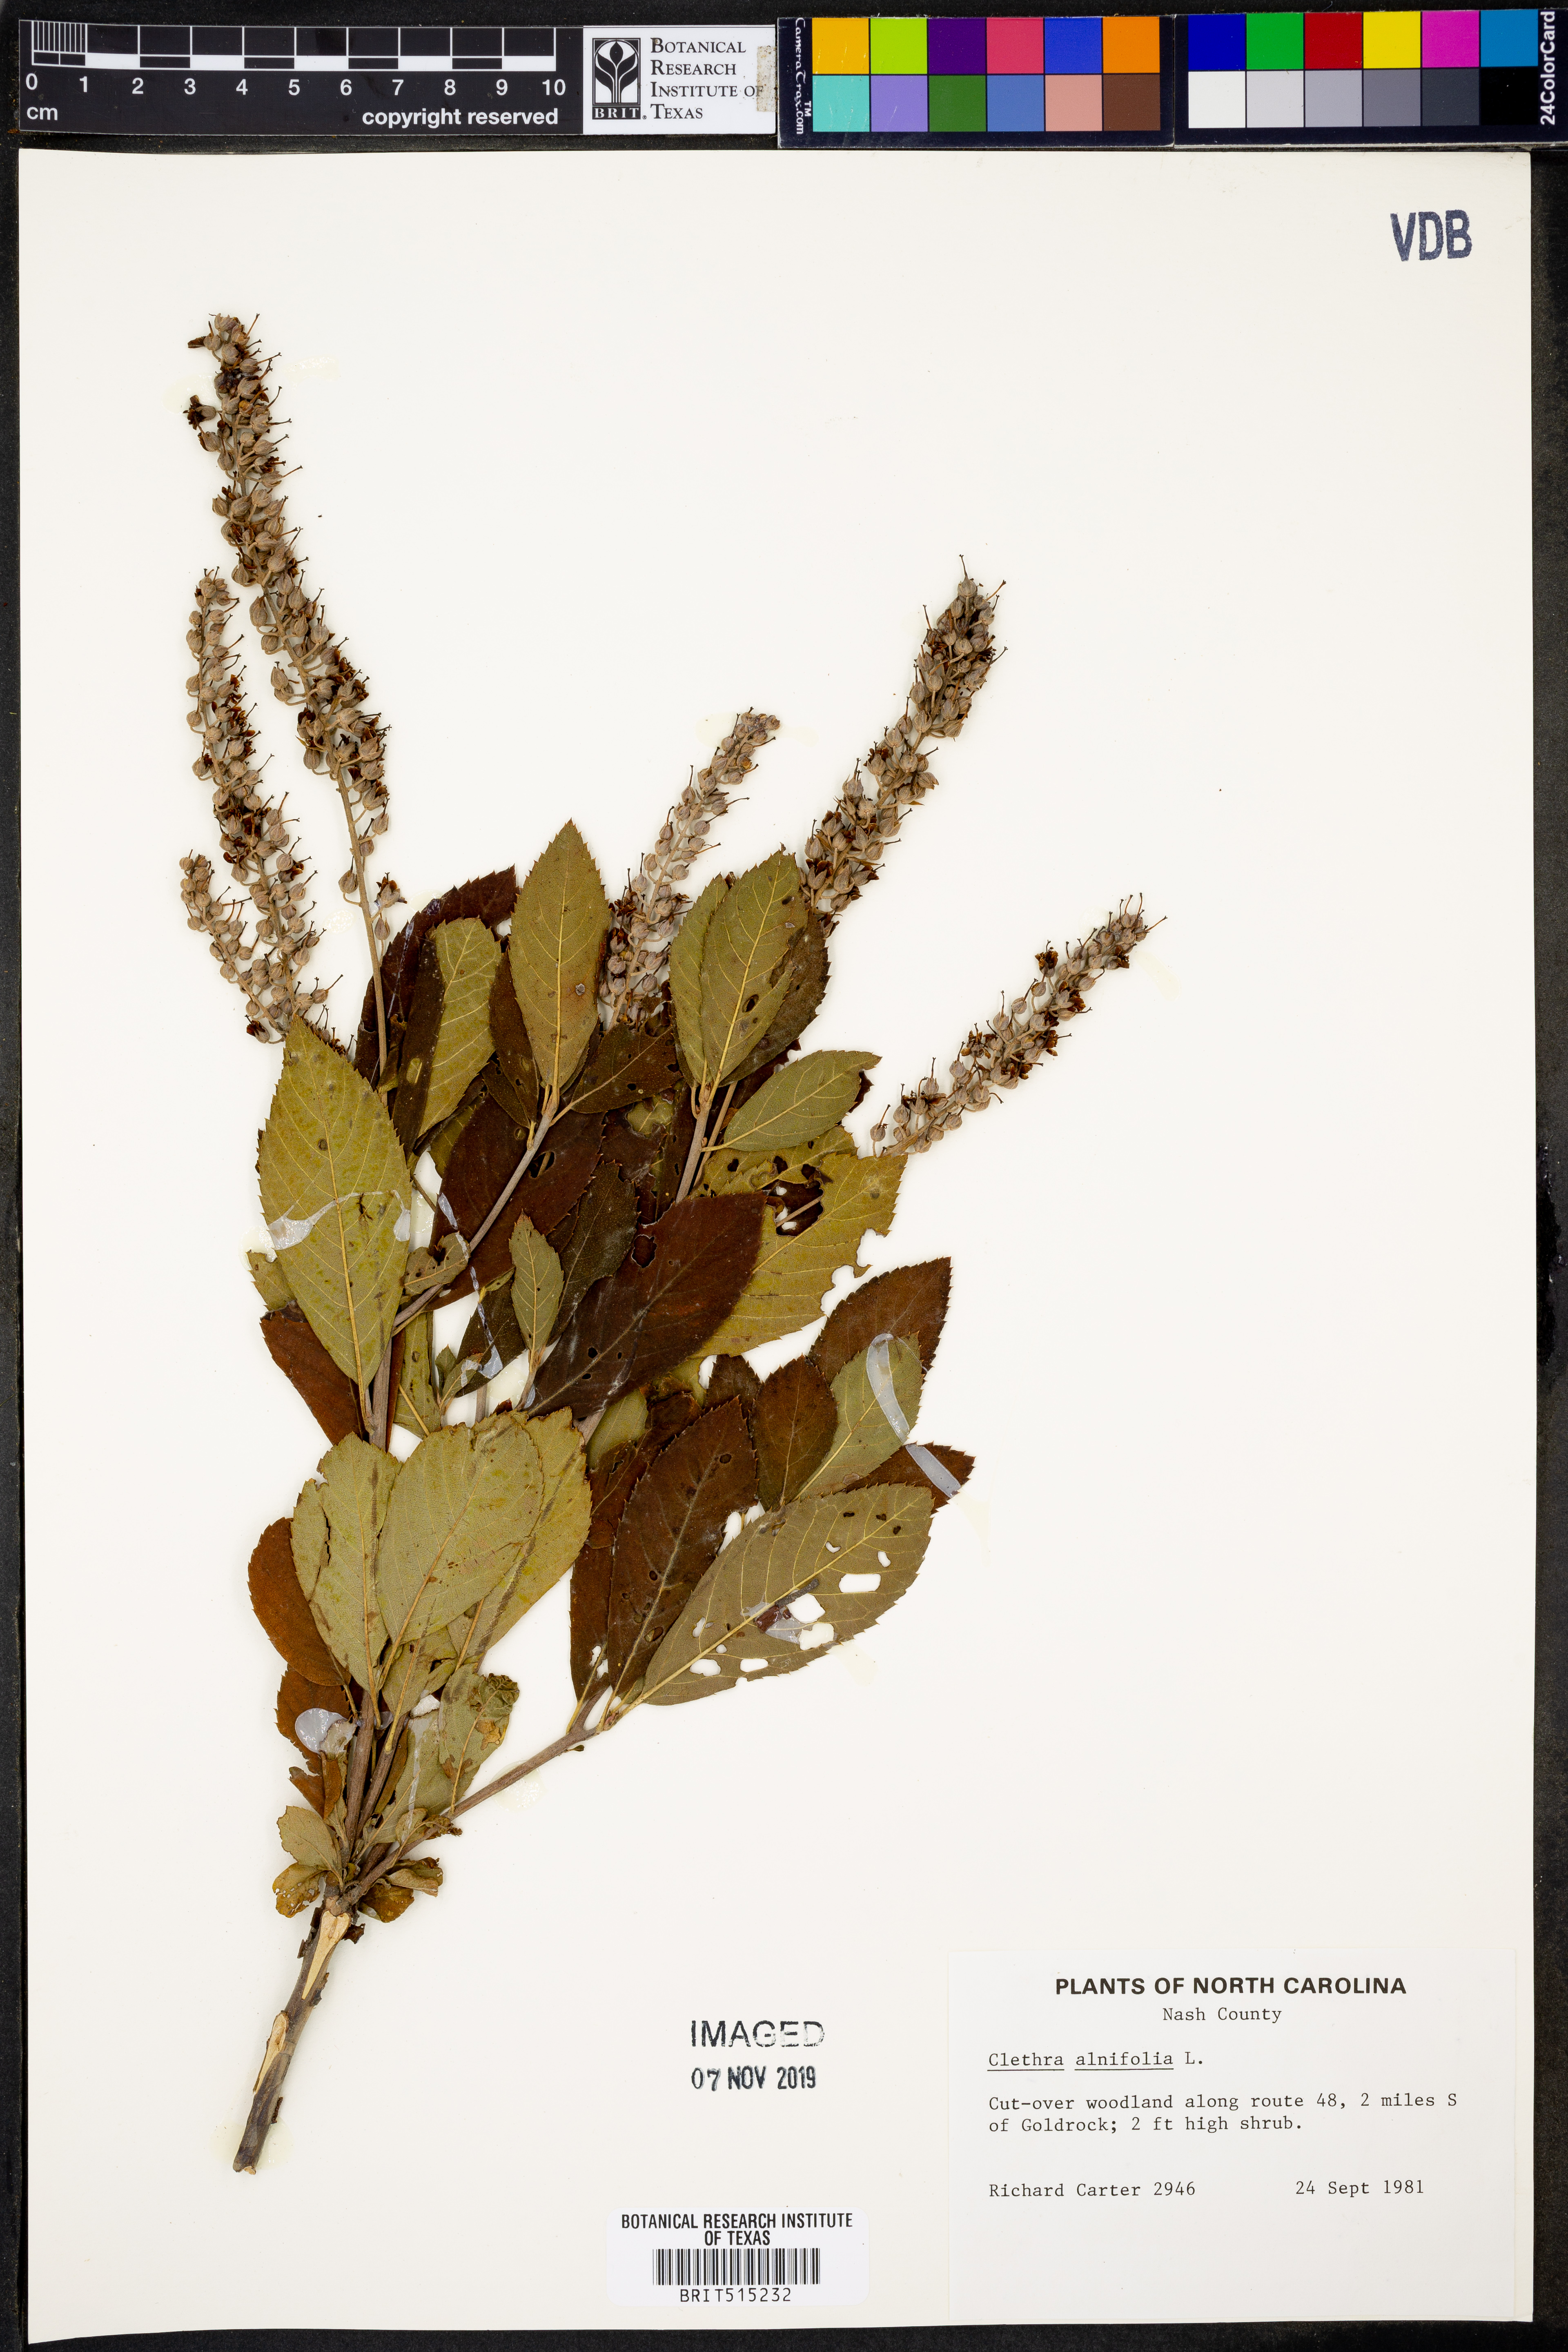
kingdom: Plantae
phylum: Tracheophyta
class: Magnoliopsida
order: Ericales
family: Clethraceae
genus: Clethra
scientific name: Clethra alnifolia
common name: Sweet pepperbush
